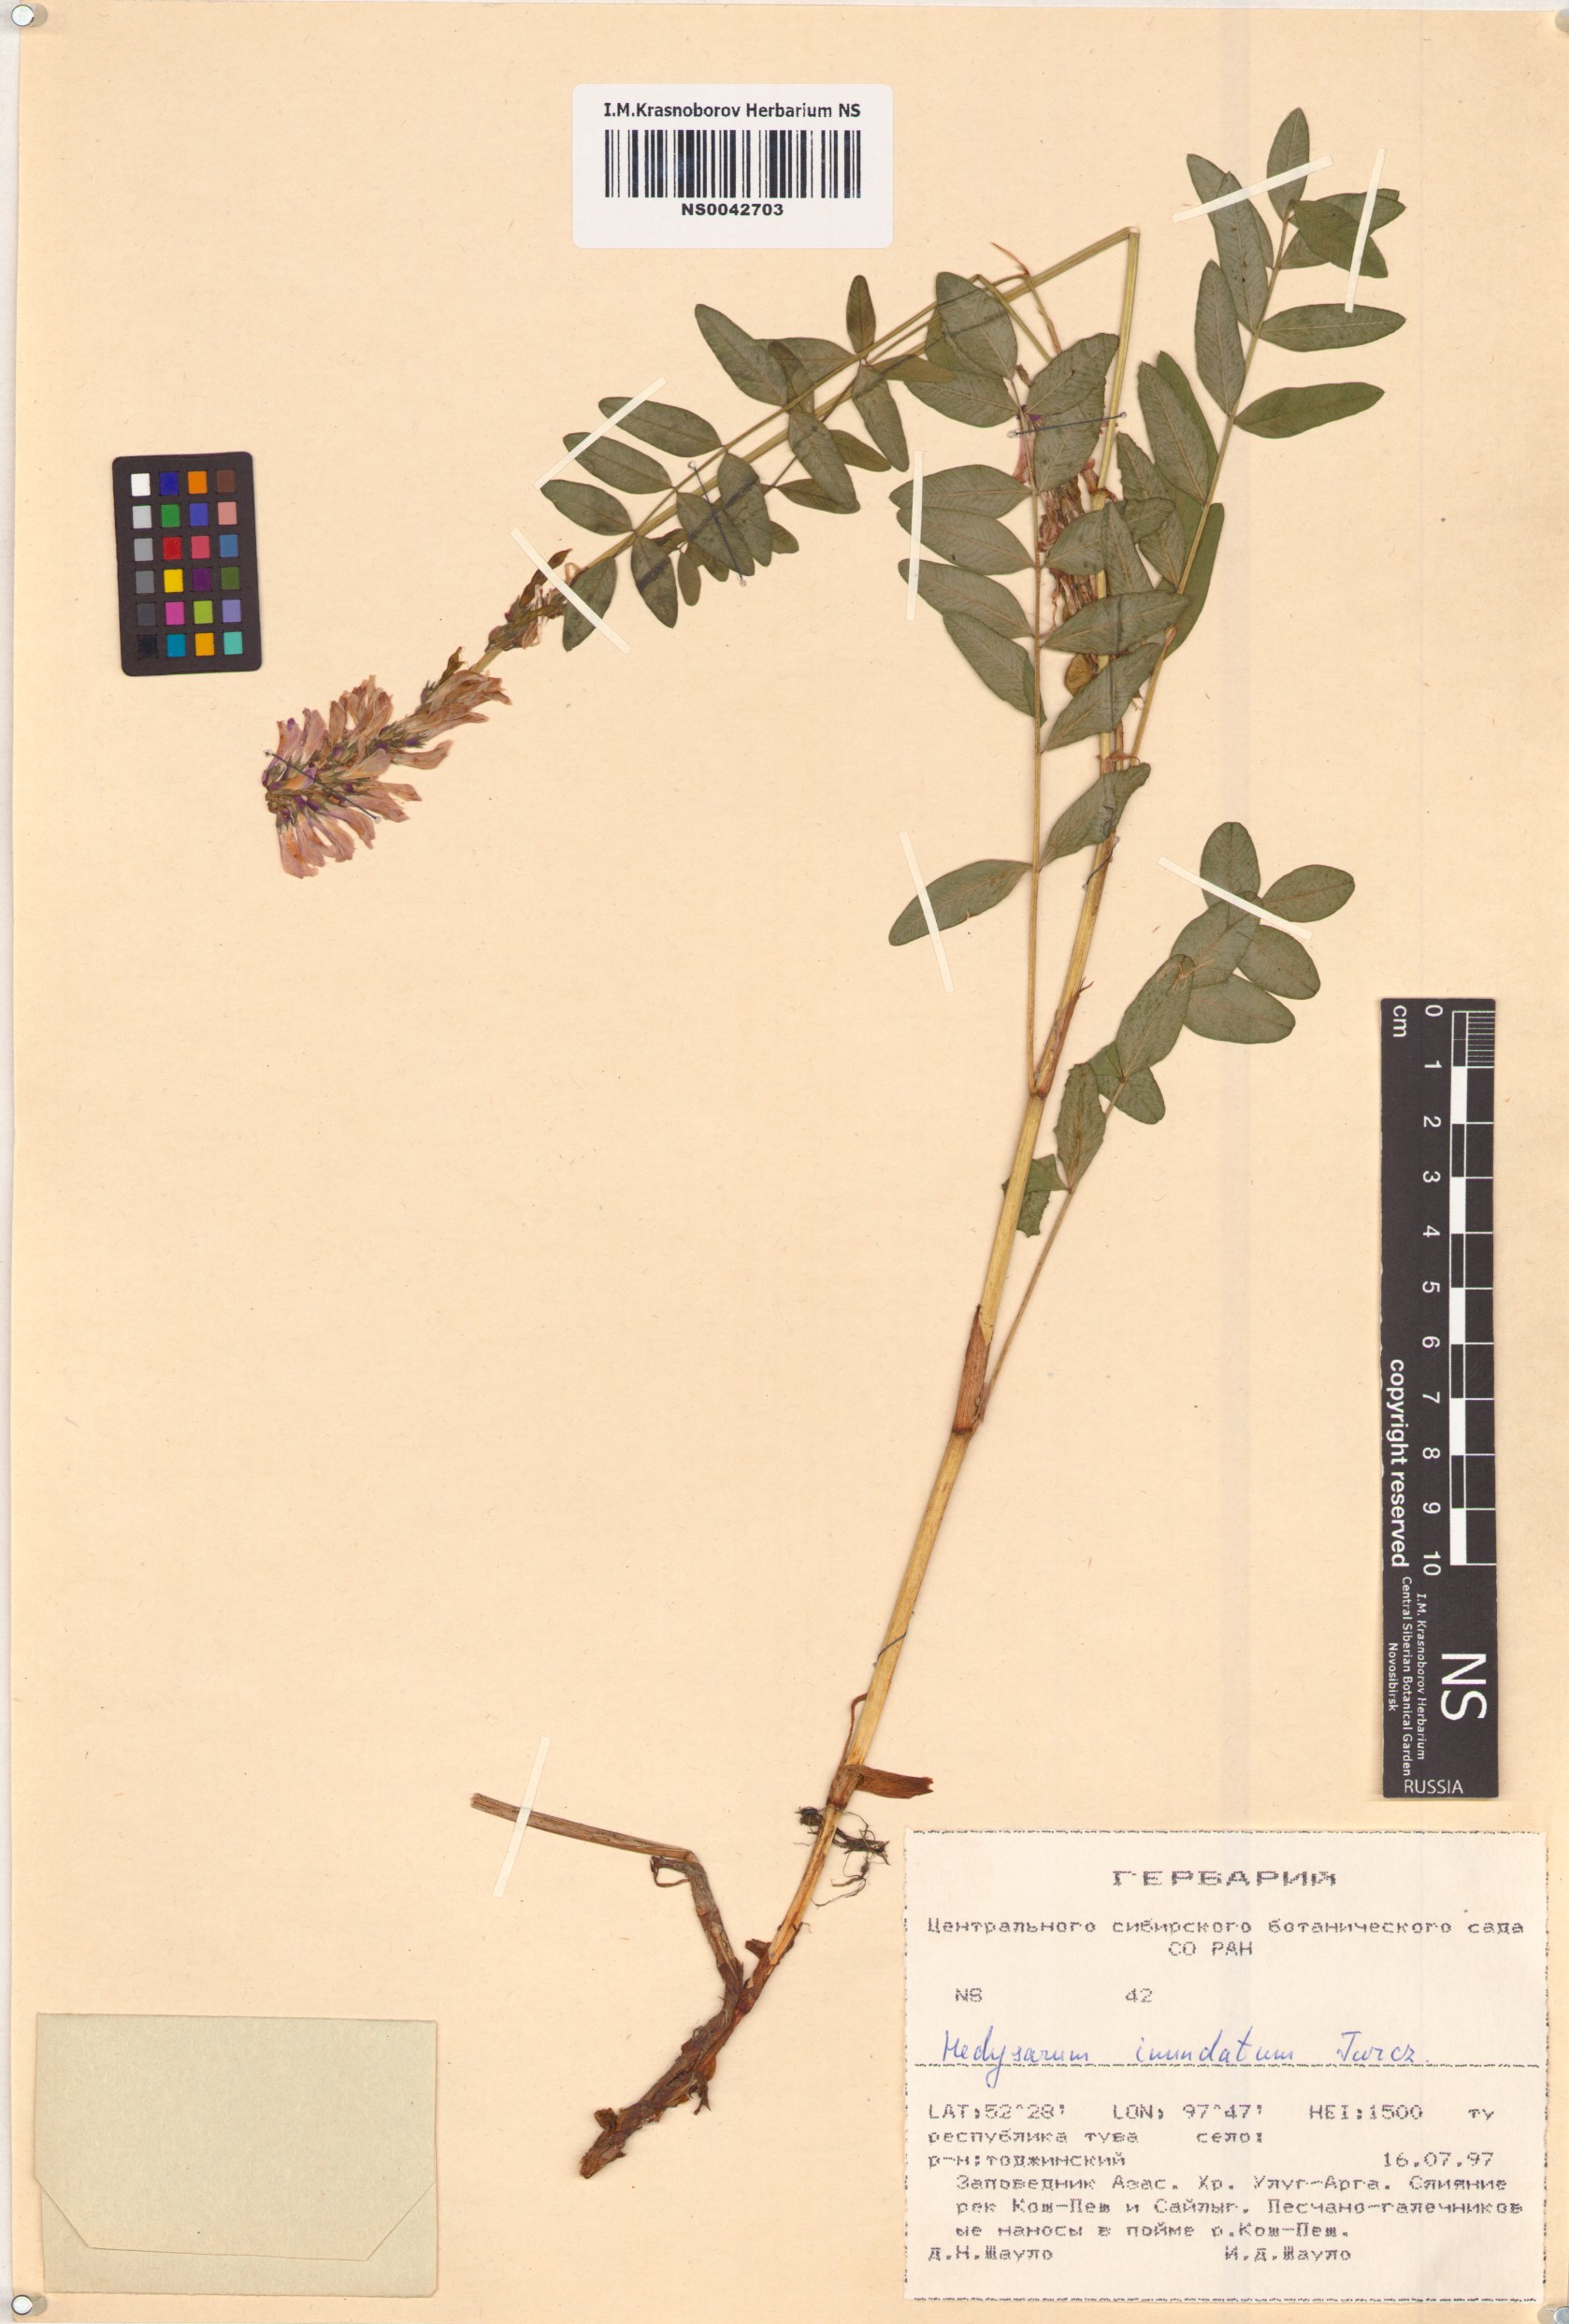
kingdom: Plantae
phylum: Tracheophyta
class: Magnoliopsida
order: Fabales
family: Fabaceae
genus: Hedysarum
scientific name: Hedysarum inundatum
